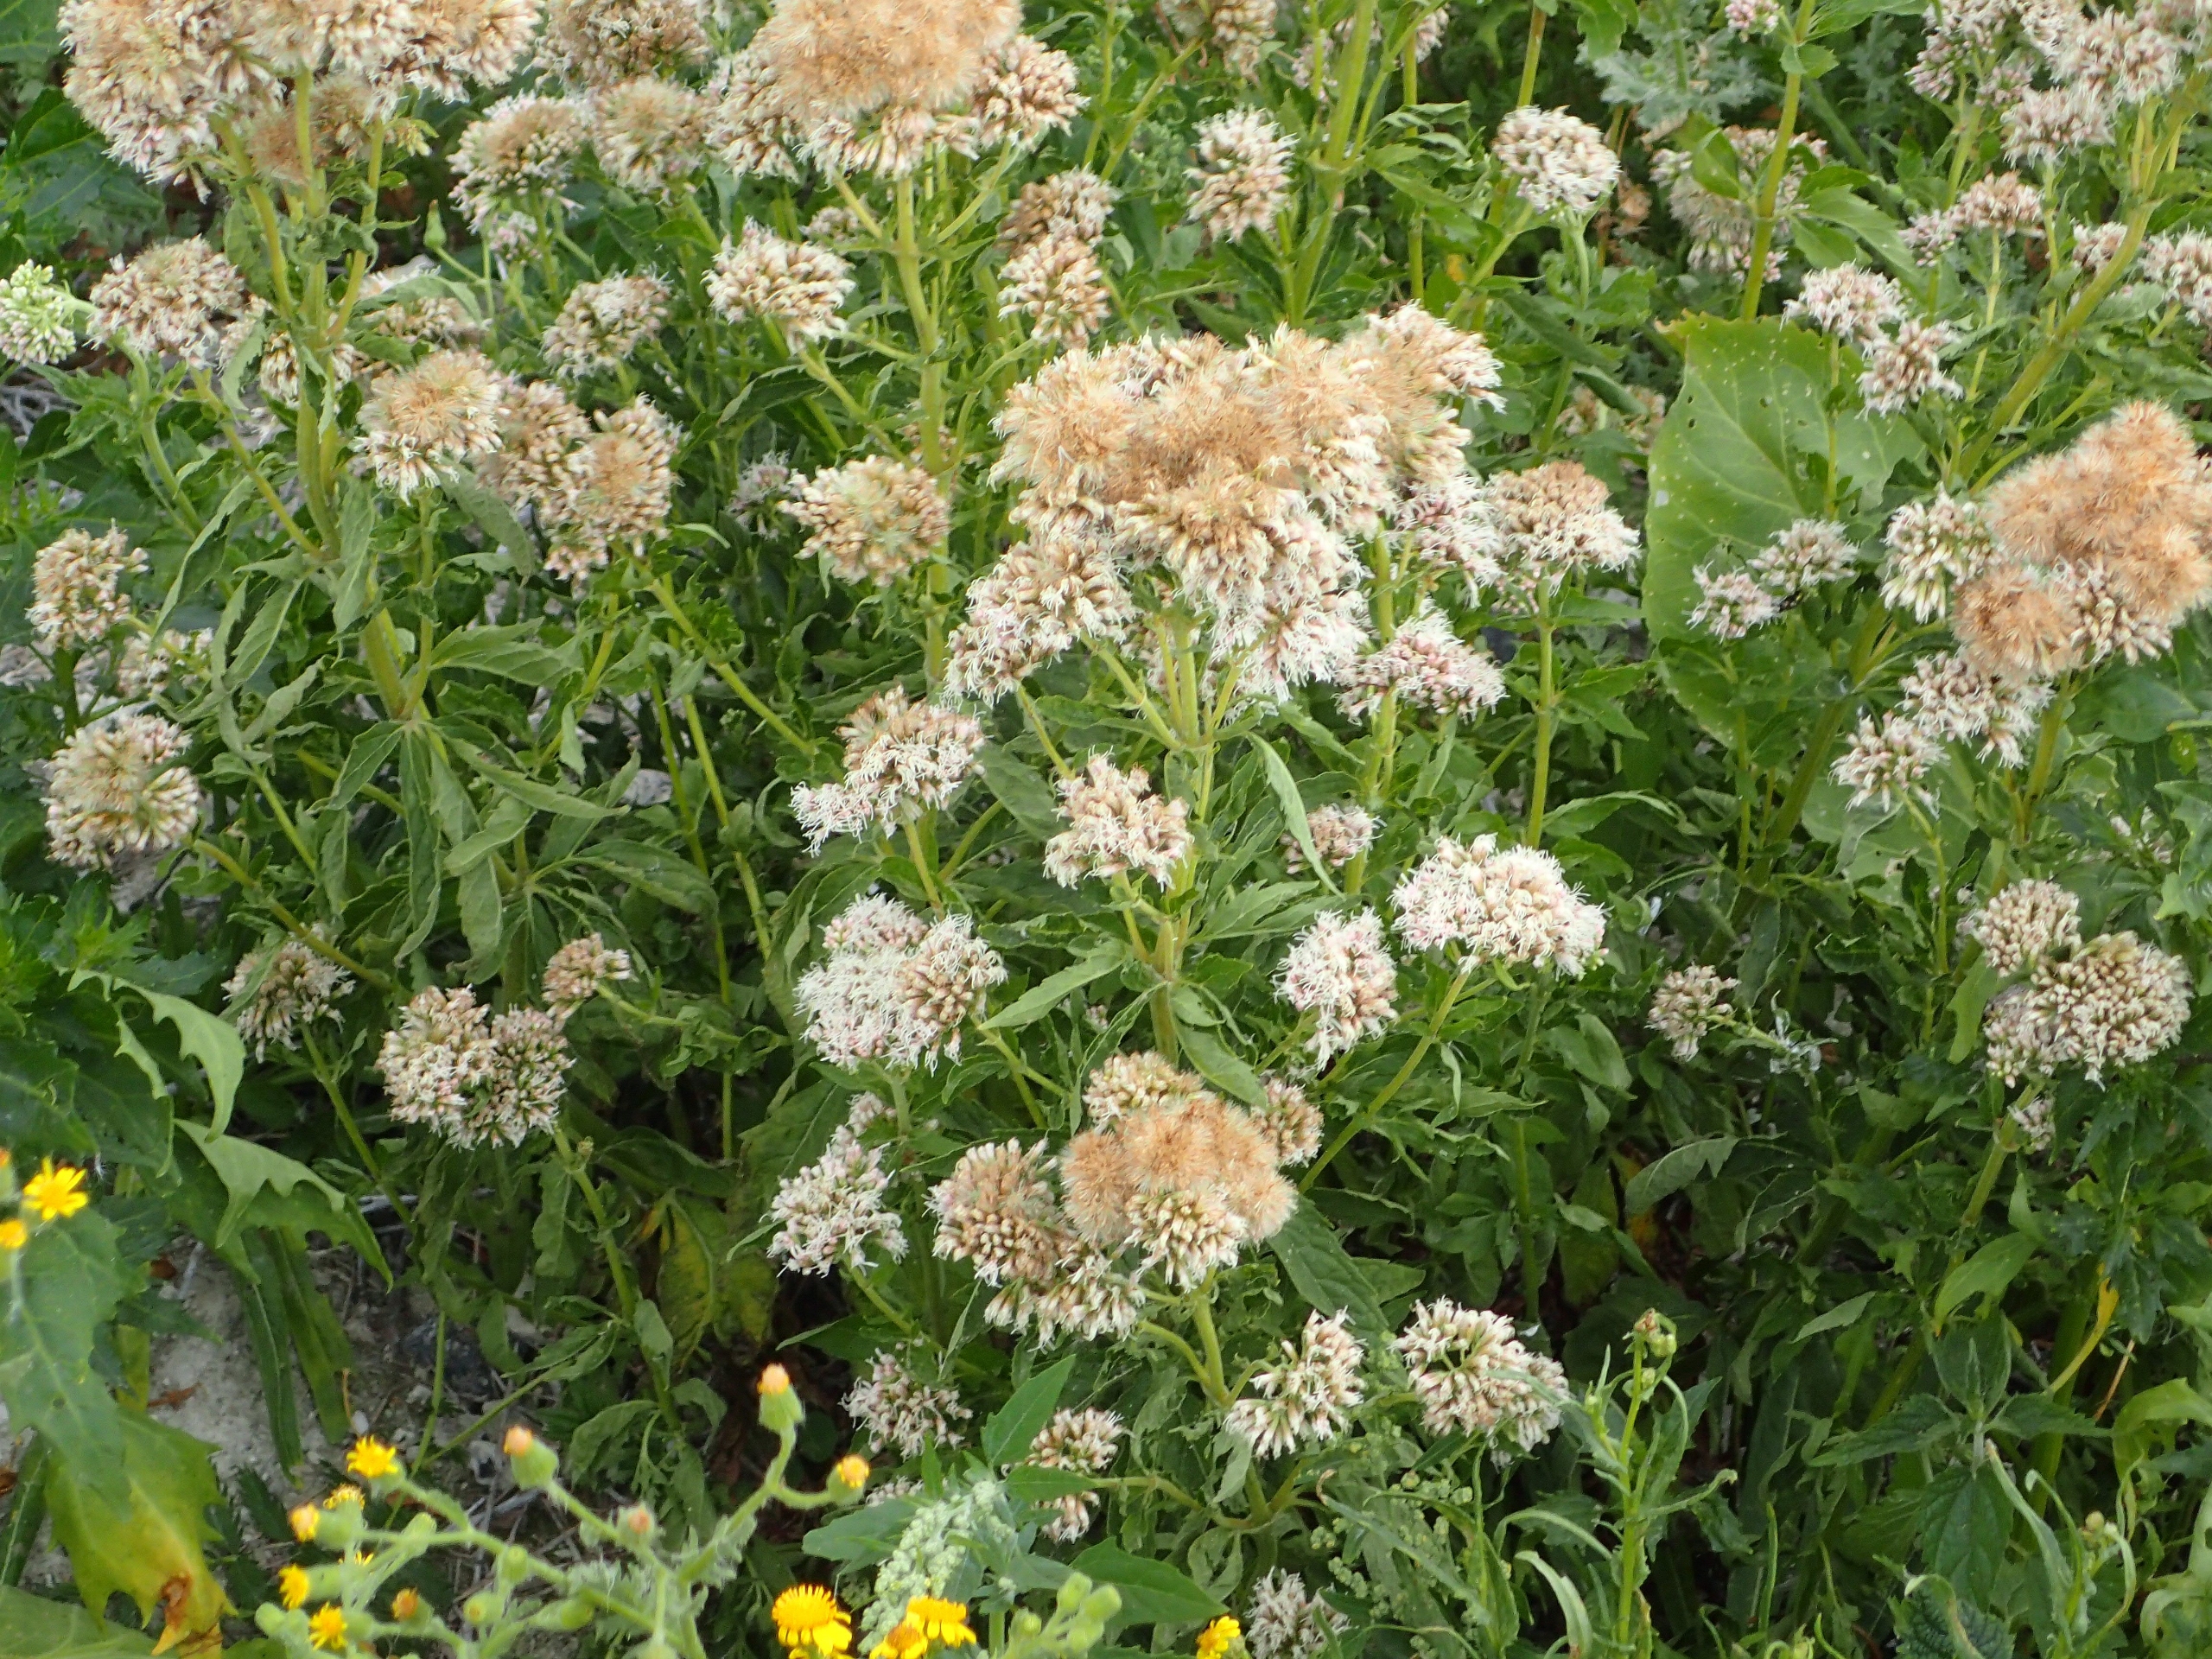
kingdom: Plantae
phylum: Tracheophyta
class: Magnoliopsida
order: Asterales
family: Asteraceae
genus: Eupatorium
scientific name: Eupatorium cannabinum
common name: Hjortetrøst
